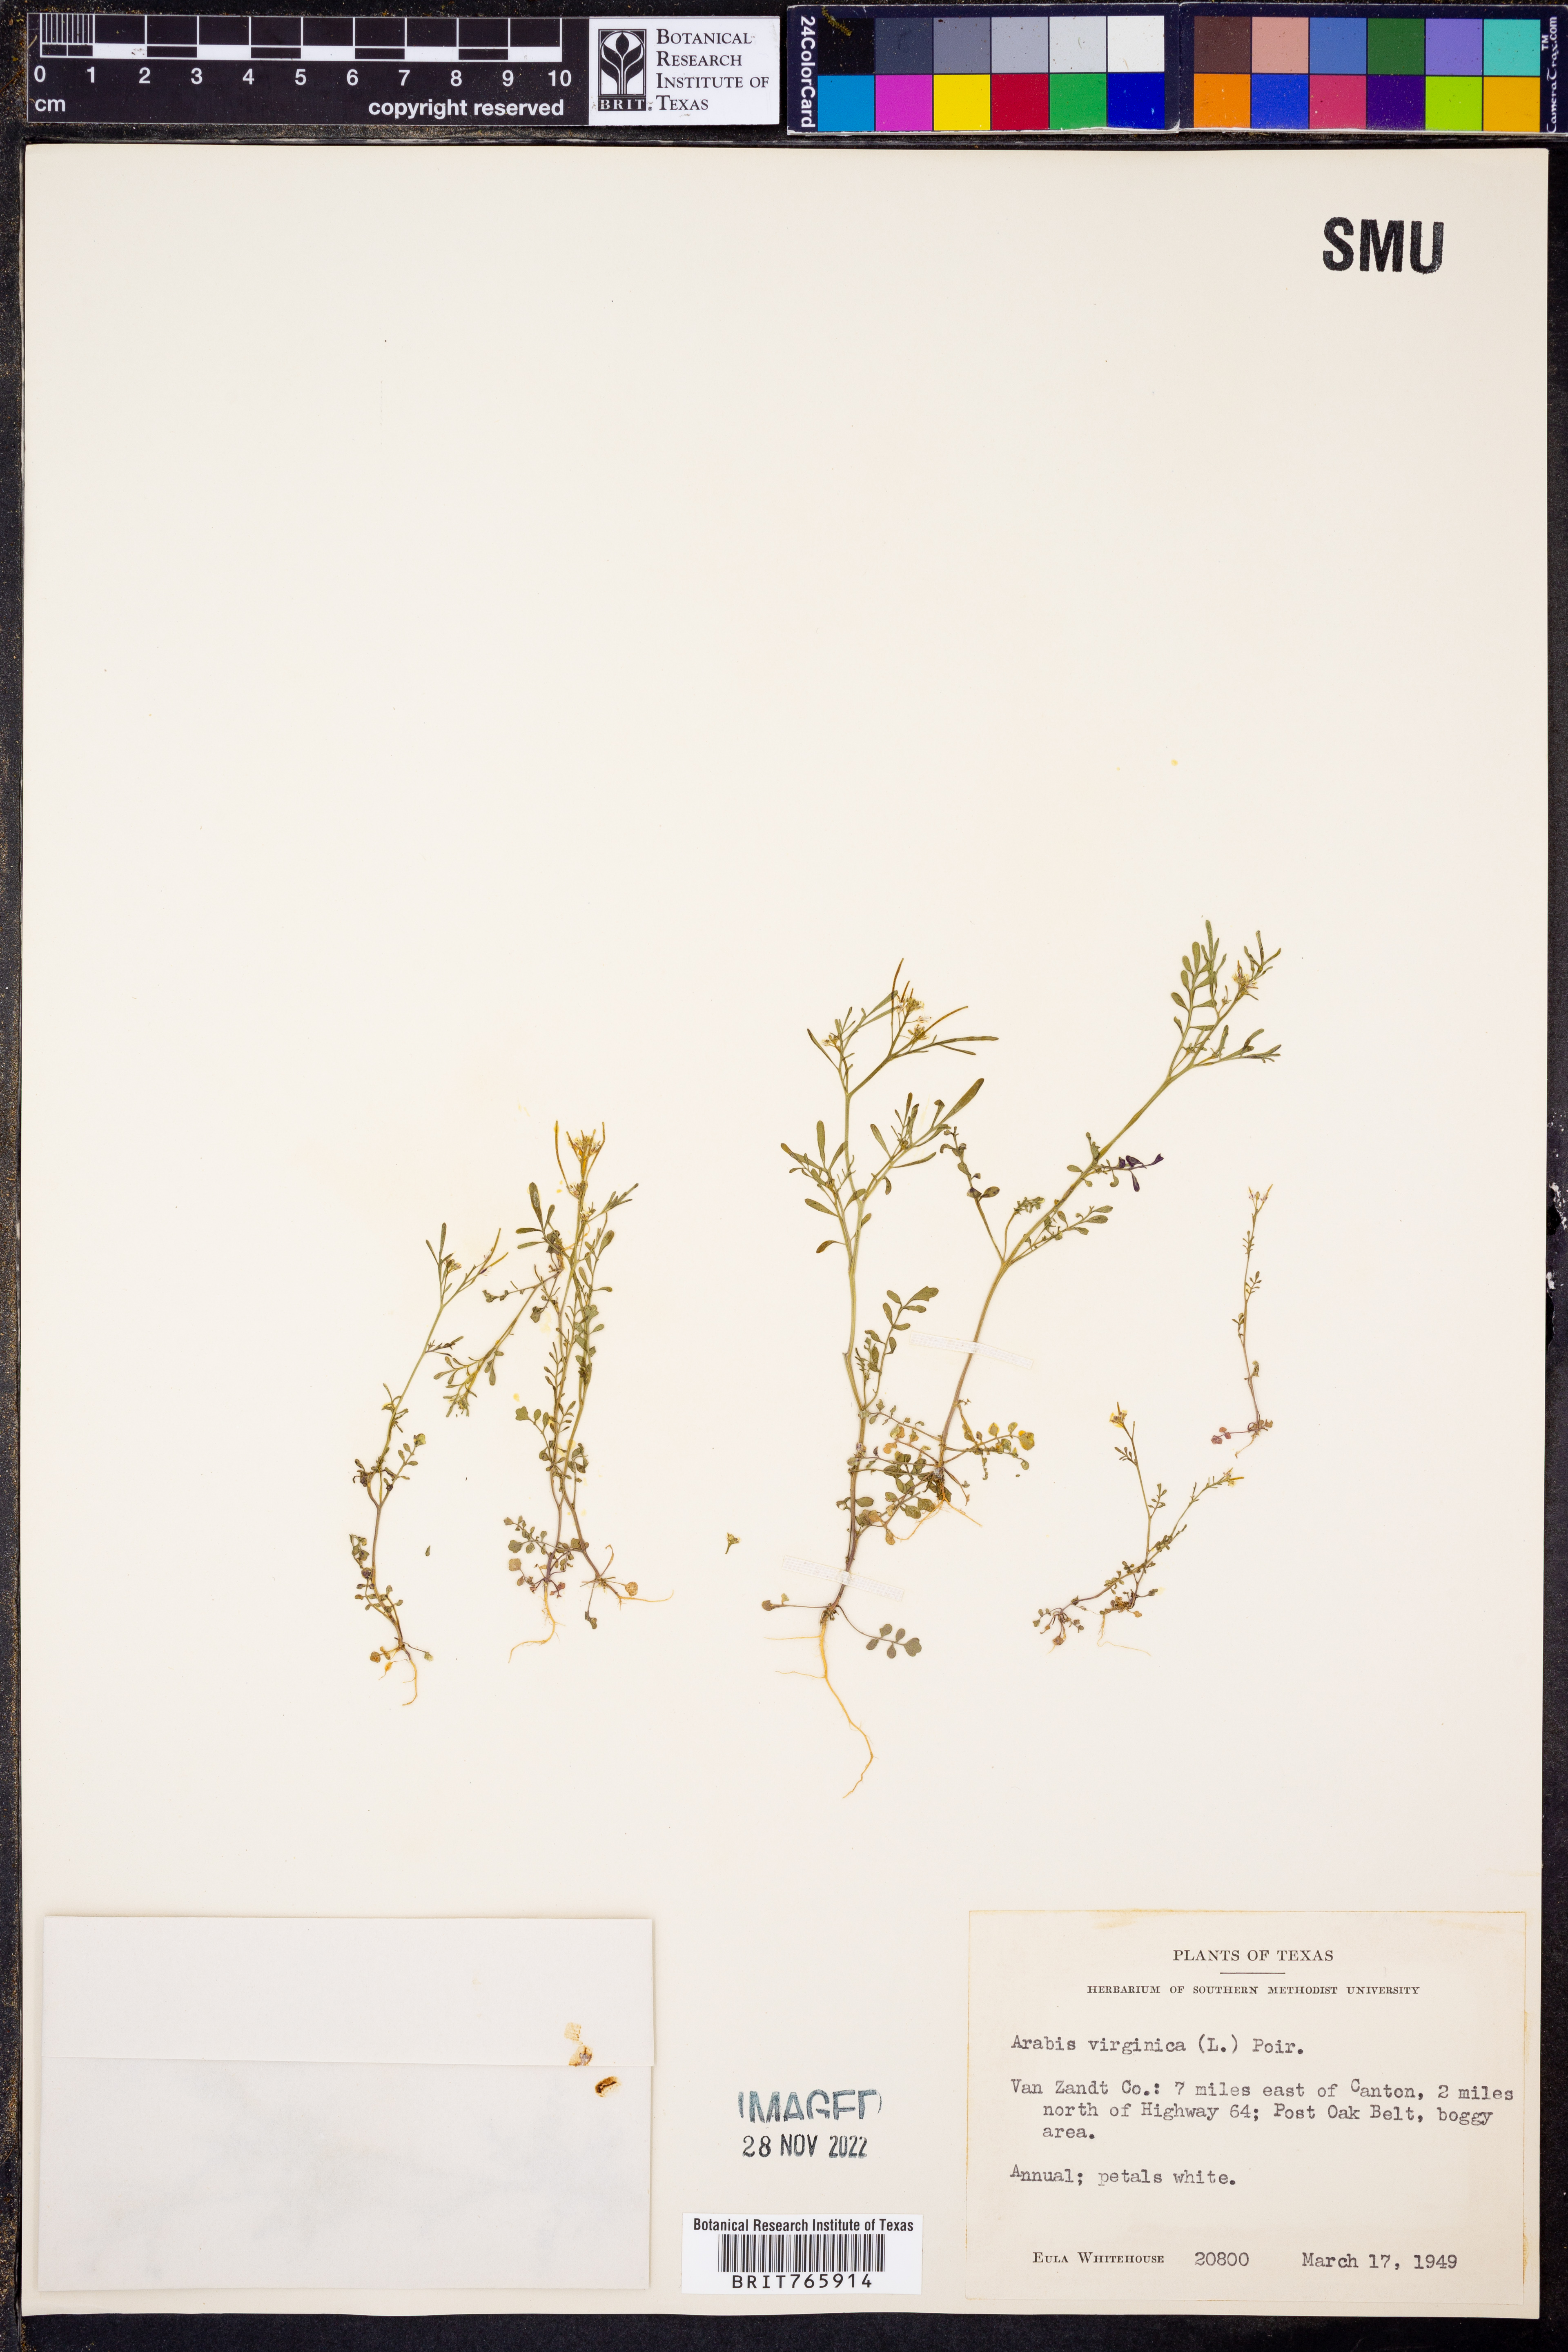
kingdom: Plantae
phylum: Tracheophyta
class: Magnoliopsida
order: Brassicales
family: Brassicaceae
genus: Planodes
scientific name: Planodes virginicum
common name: Virginia cress
